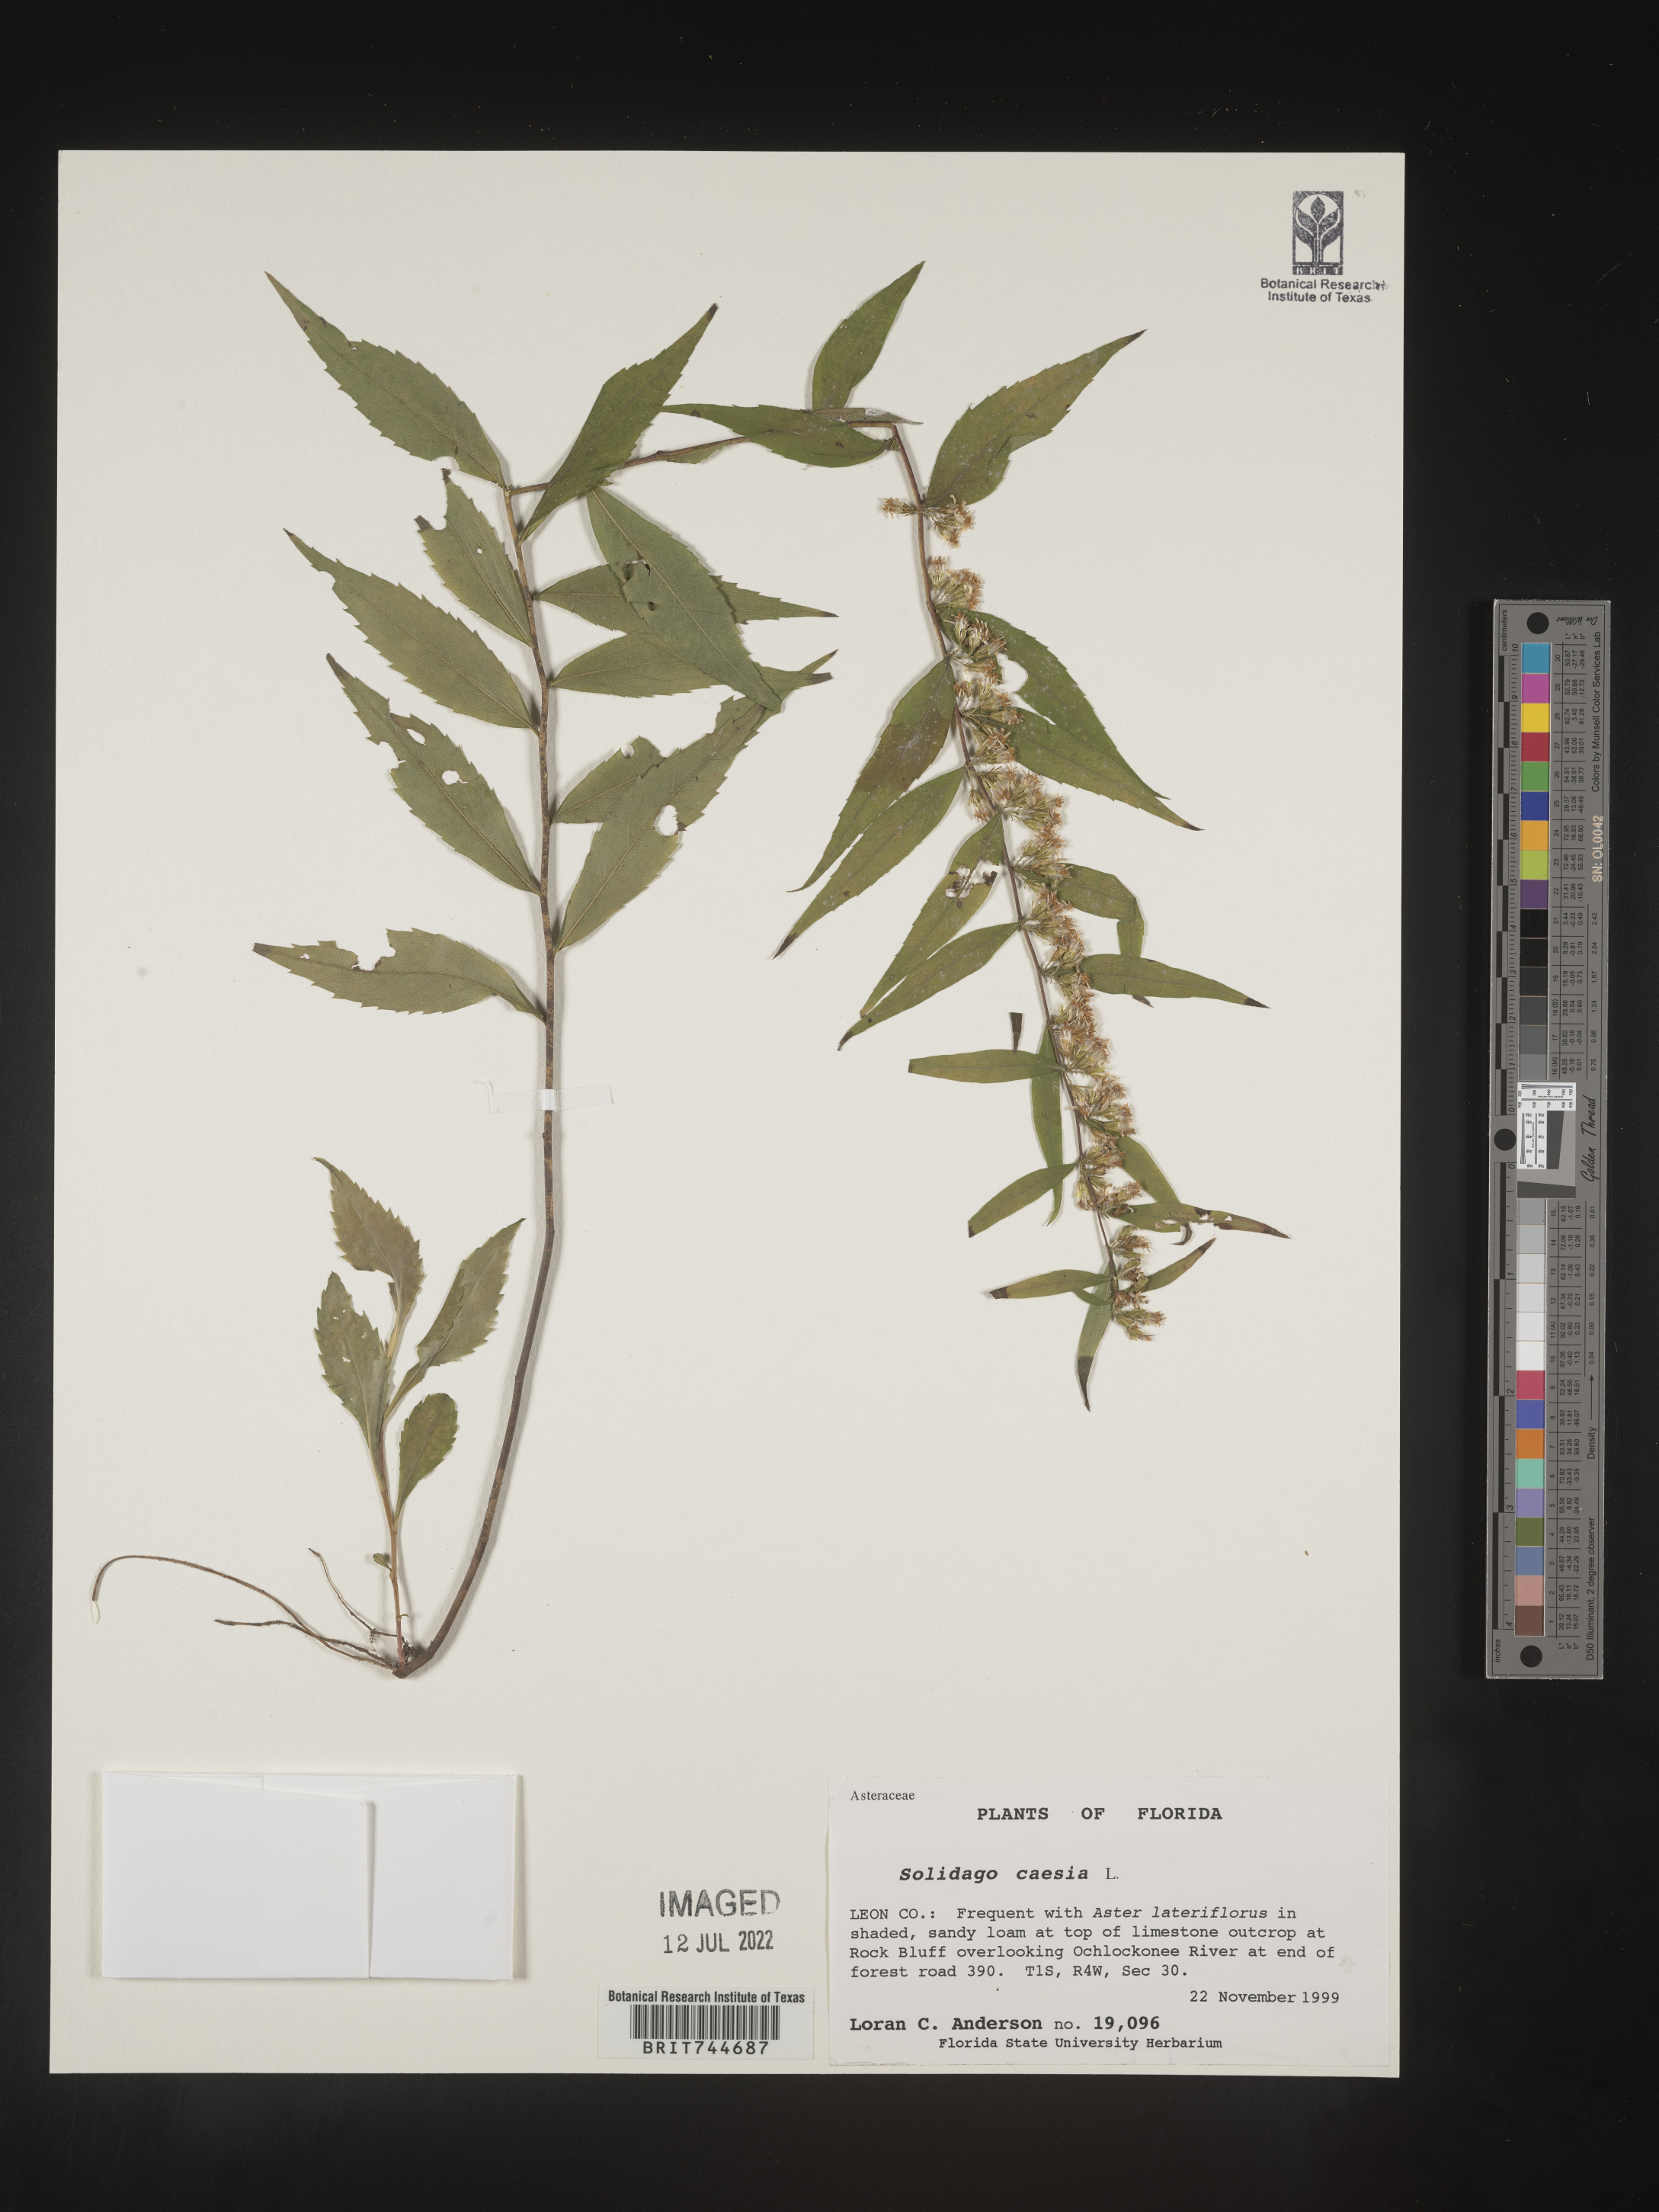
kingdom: Plantae
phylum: Tracheophyta
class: Magnoliopsida
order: Asterales
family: Asteraceae
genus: Solidago
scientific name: Solidago caesia
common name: Woodland goldenrod
